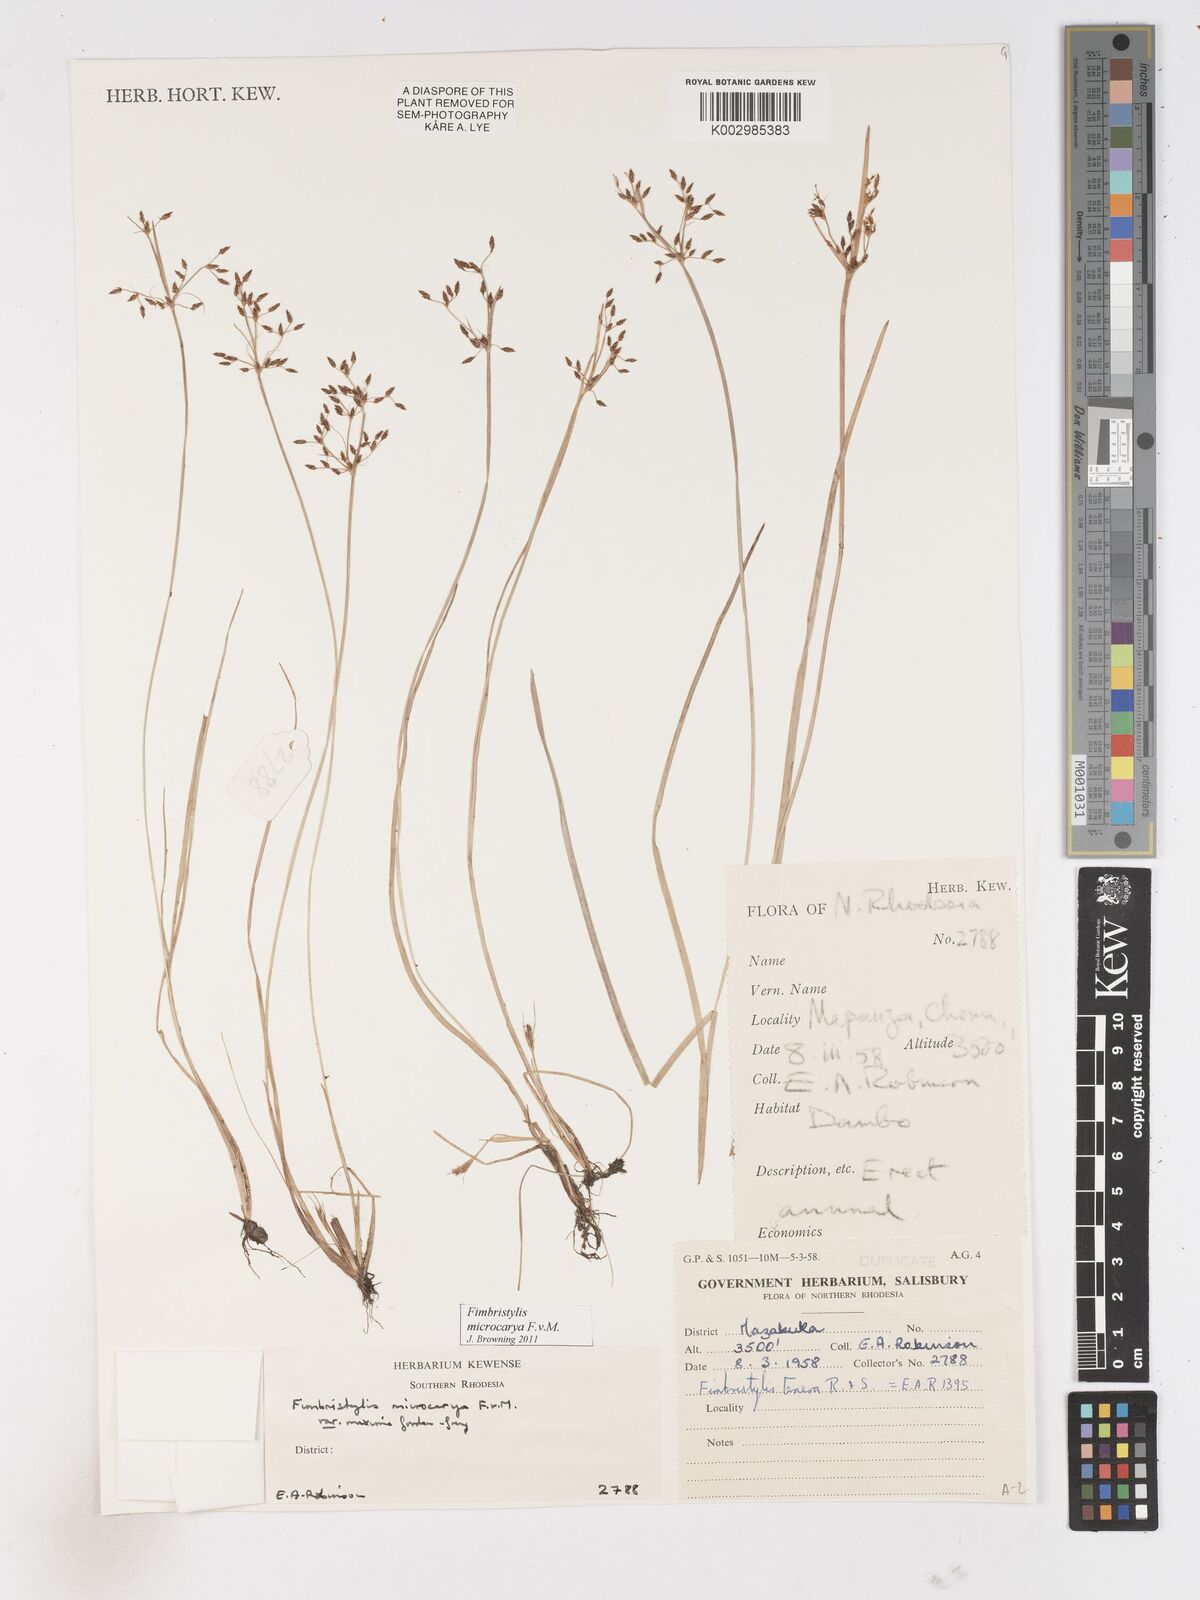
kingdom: Plantae
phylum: Tracheophyta
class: Liliopsida
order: Poales
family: Cyperaceae
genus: Fimbristylis
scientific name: Fimbristylis microcarya
